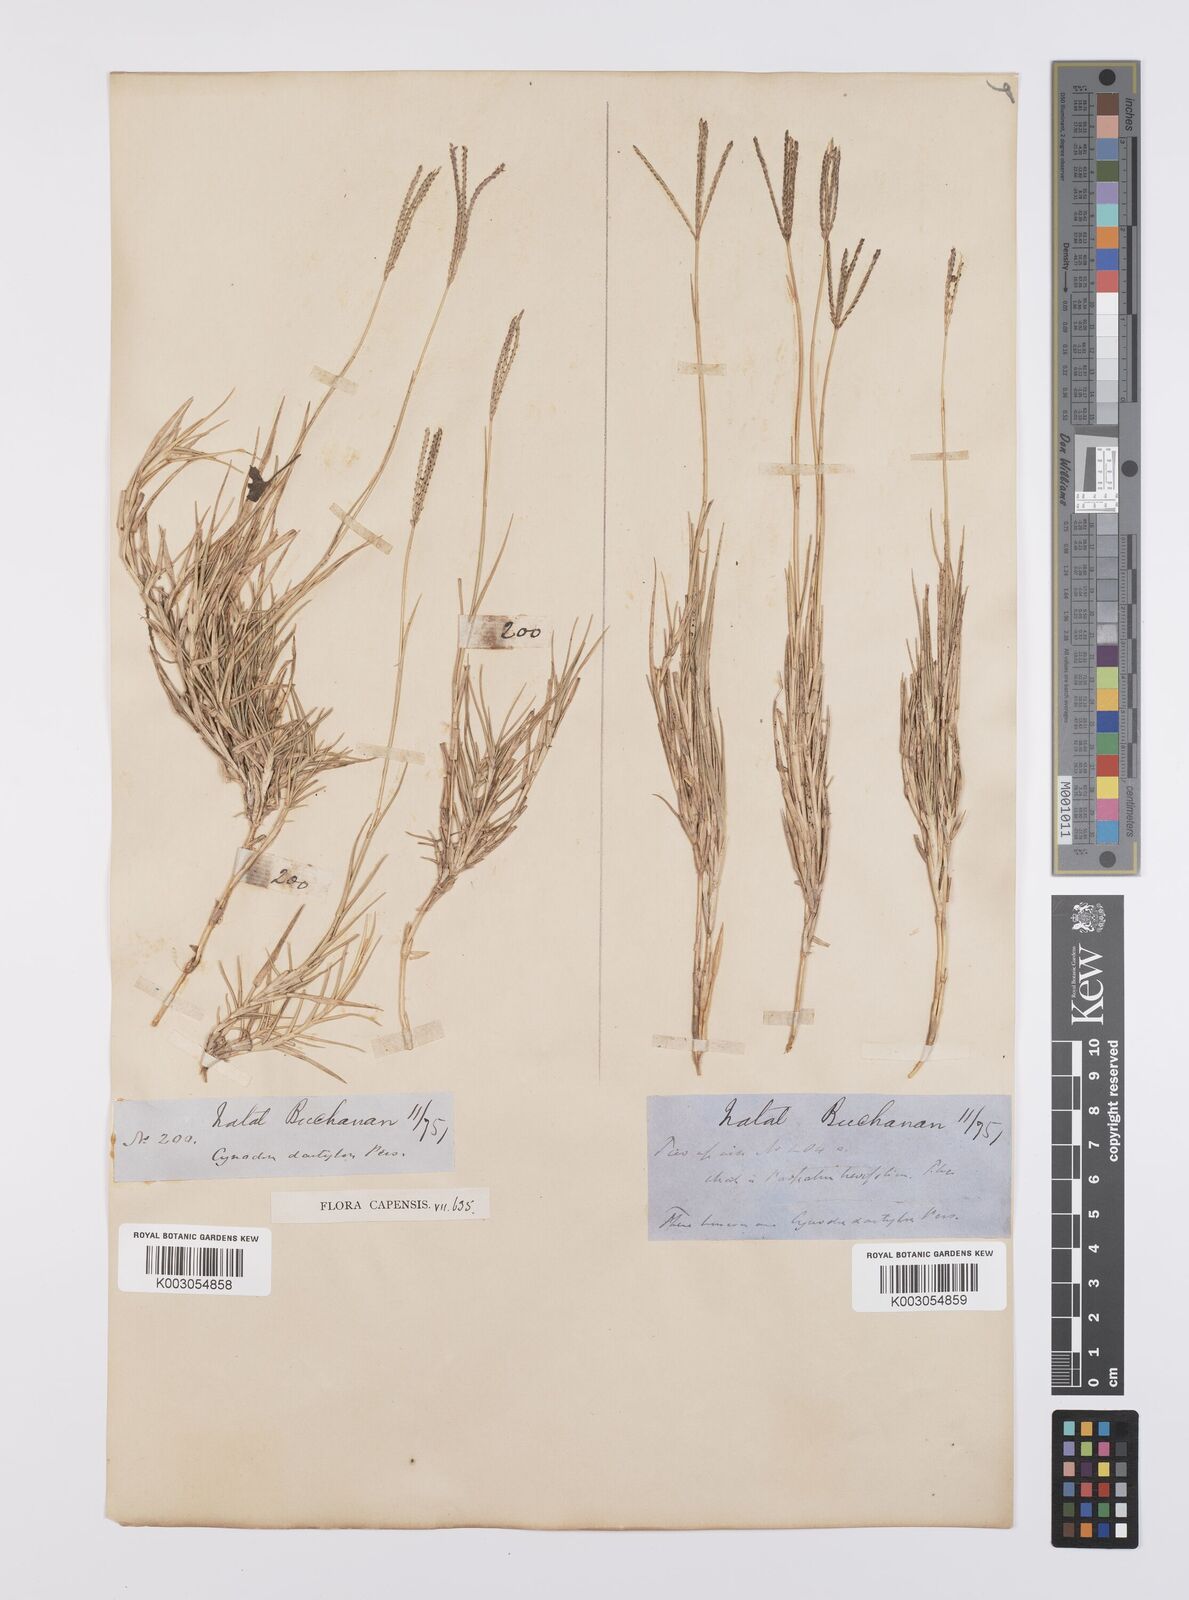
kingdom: Plantae
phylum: Tracheophyta
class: Liliopsida
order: Poales
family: Poaceae
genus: Cynodon
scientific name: Cynodon dactylon
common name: Bermuda grass
